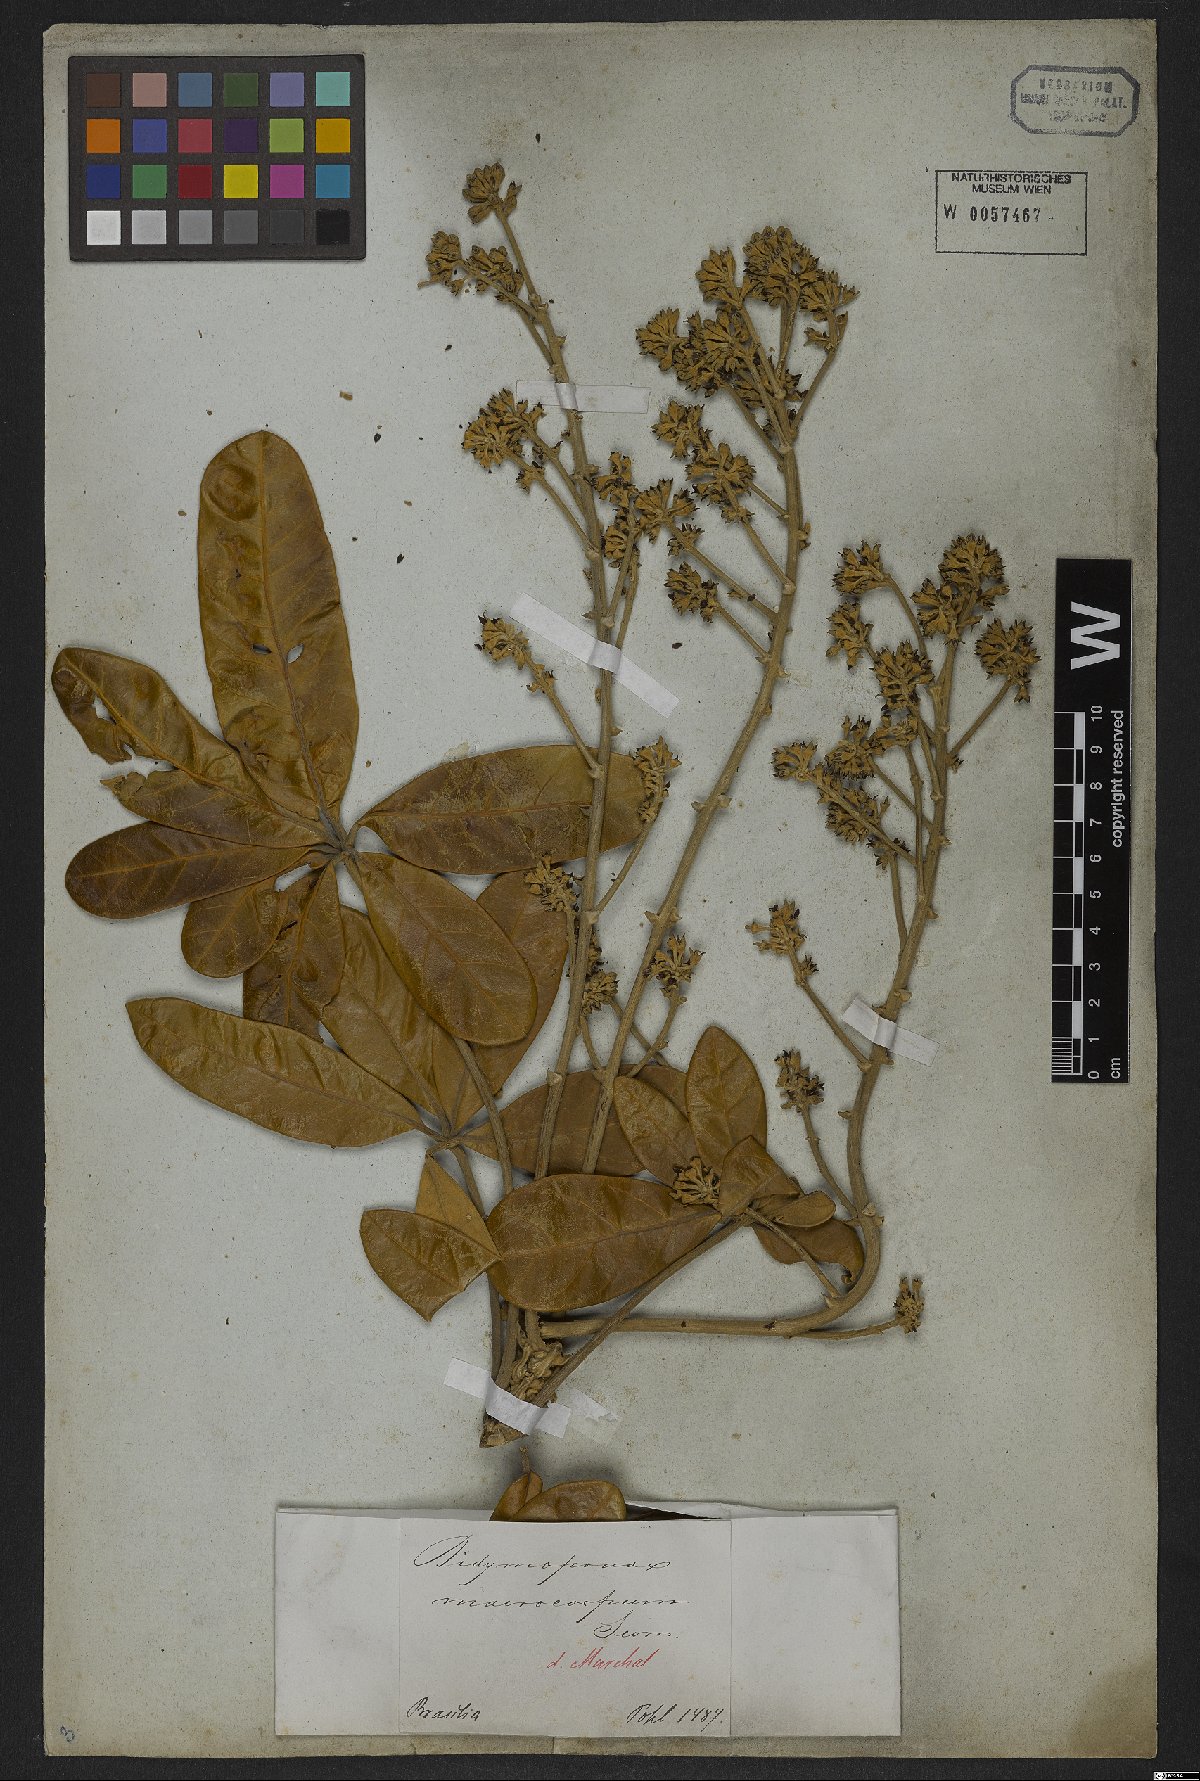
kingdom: Plantae
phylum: Tracheophyta
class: Magnoliopsida
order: Apiales
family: Araliaceae
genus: Didymopanax
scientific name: Didymopanax macrocarpus
